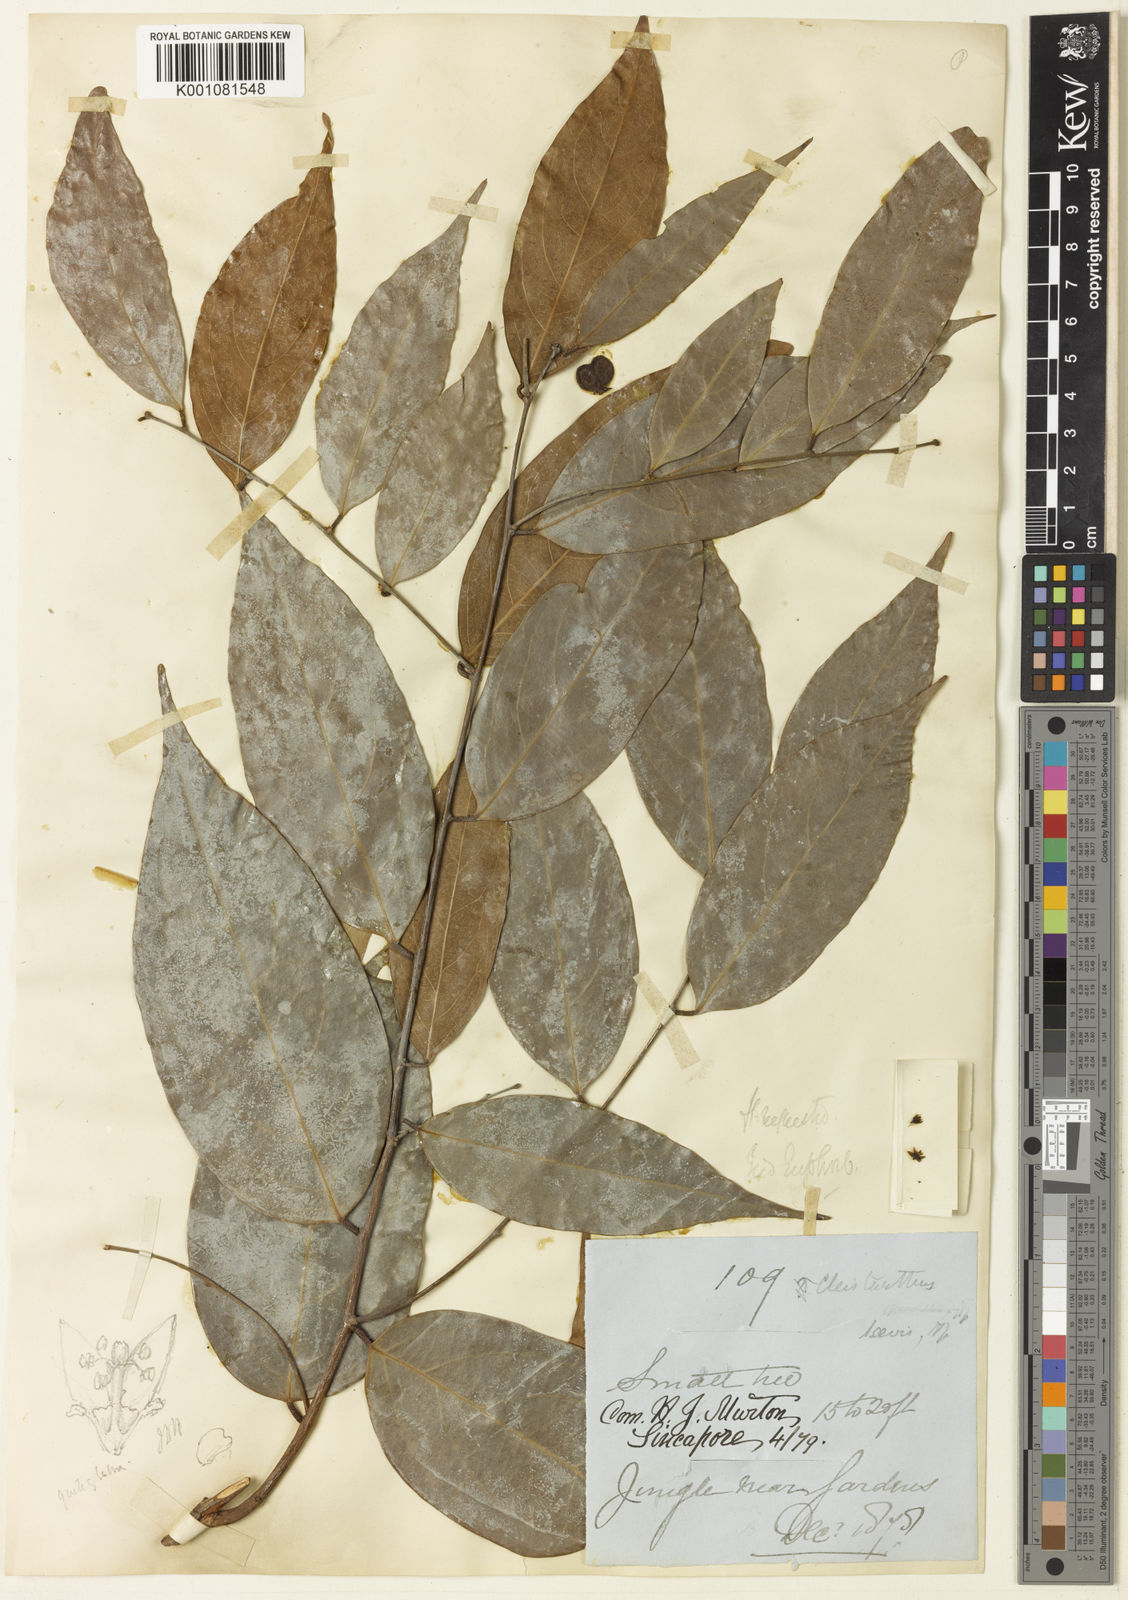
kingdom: Plantae
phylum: Tracheophyta
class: Magnoliopsida
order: Malpighiales
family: Phyllanthaceae
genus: Cleistanthus
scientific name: Cleistanthus
